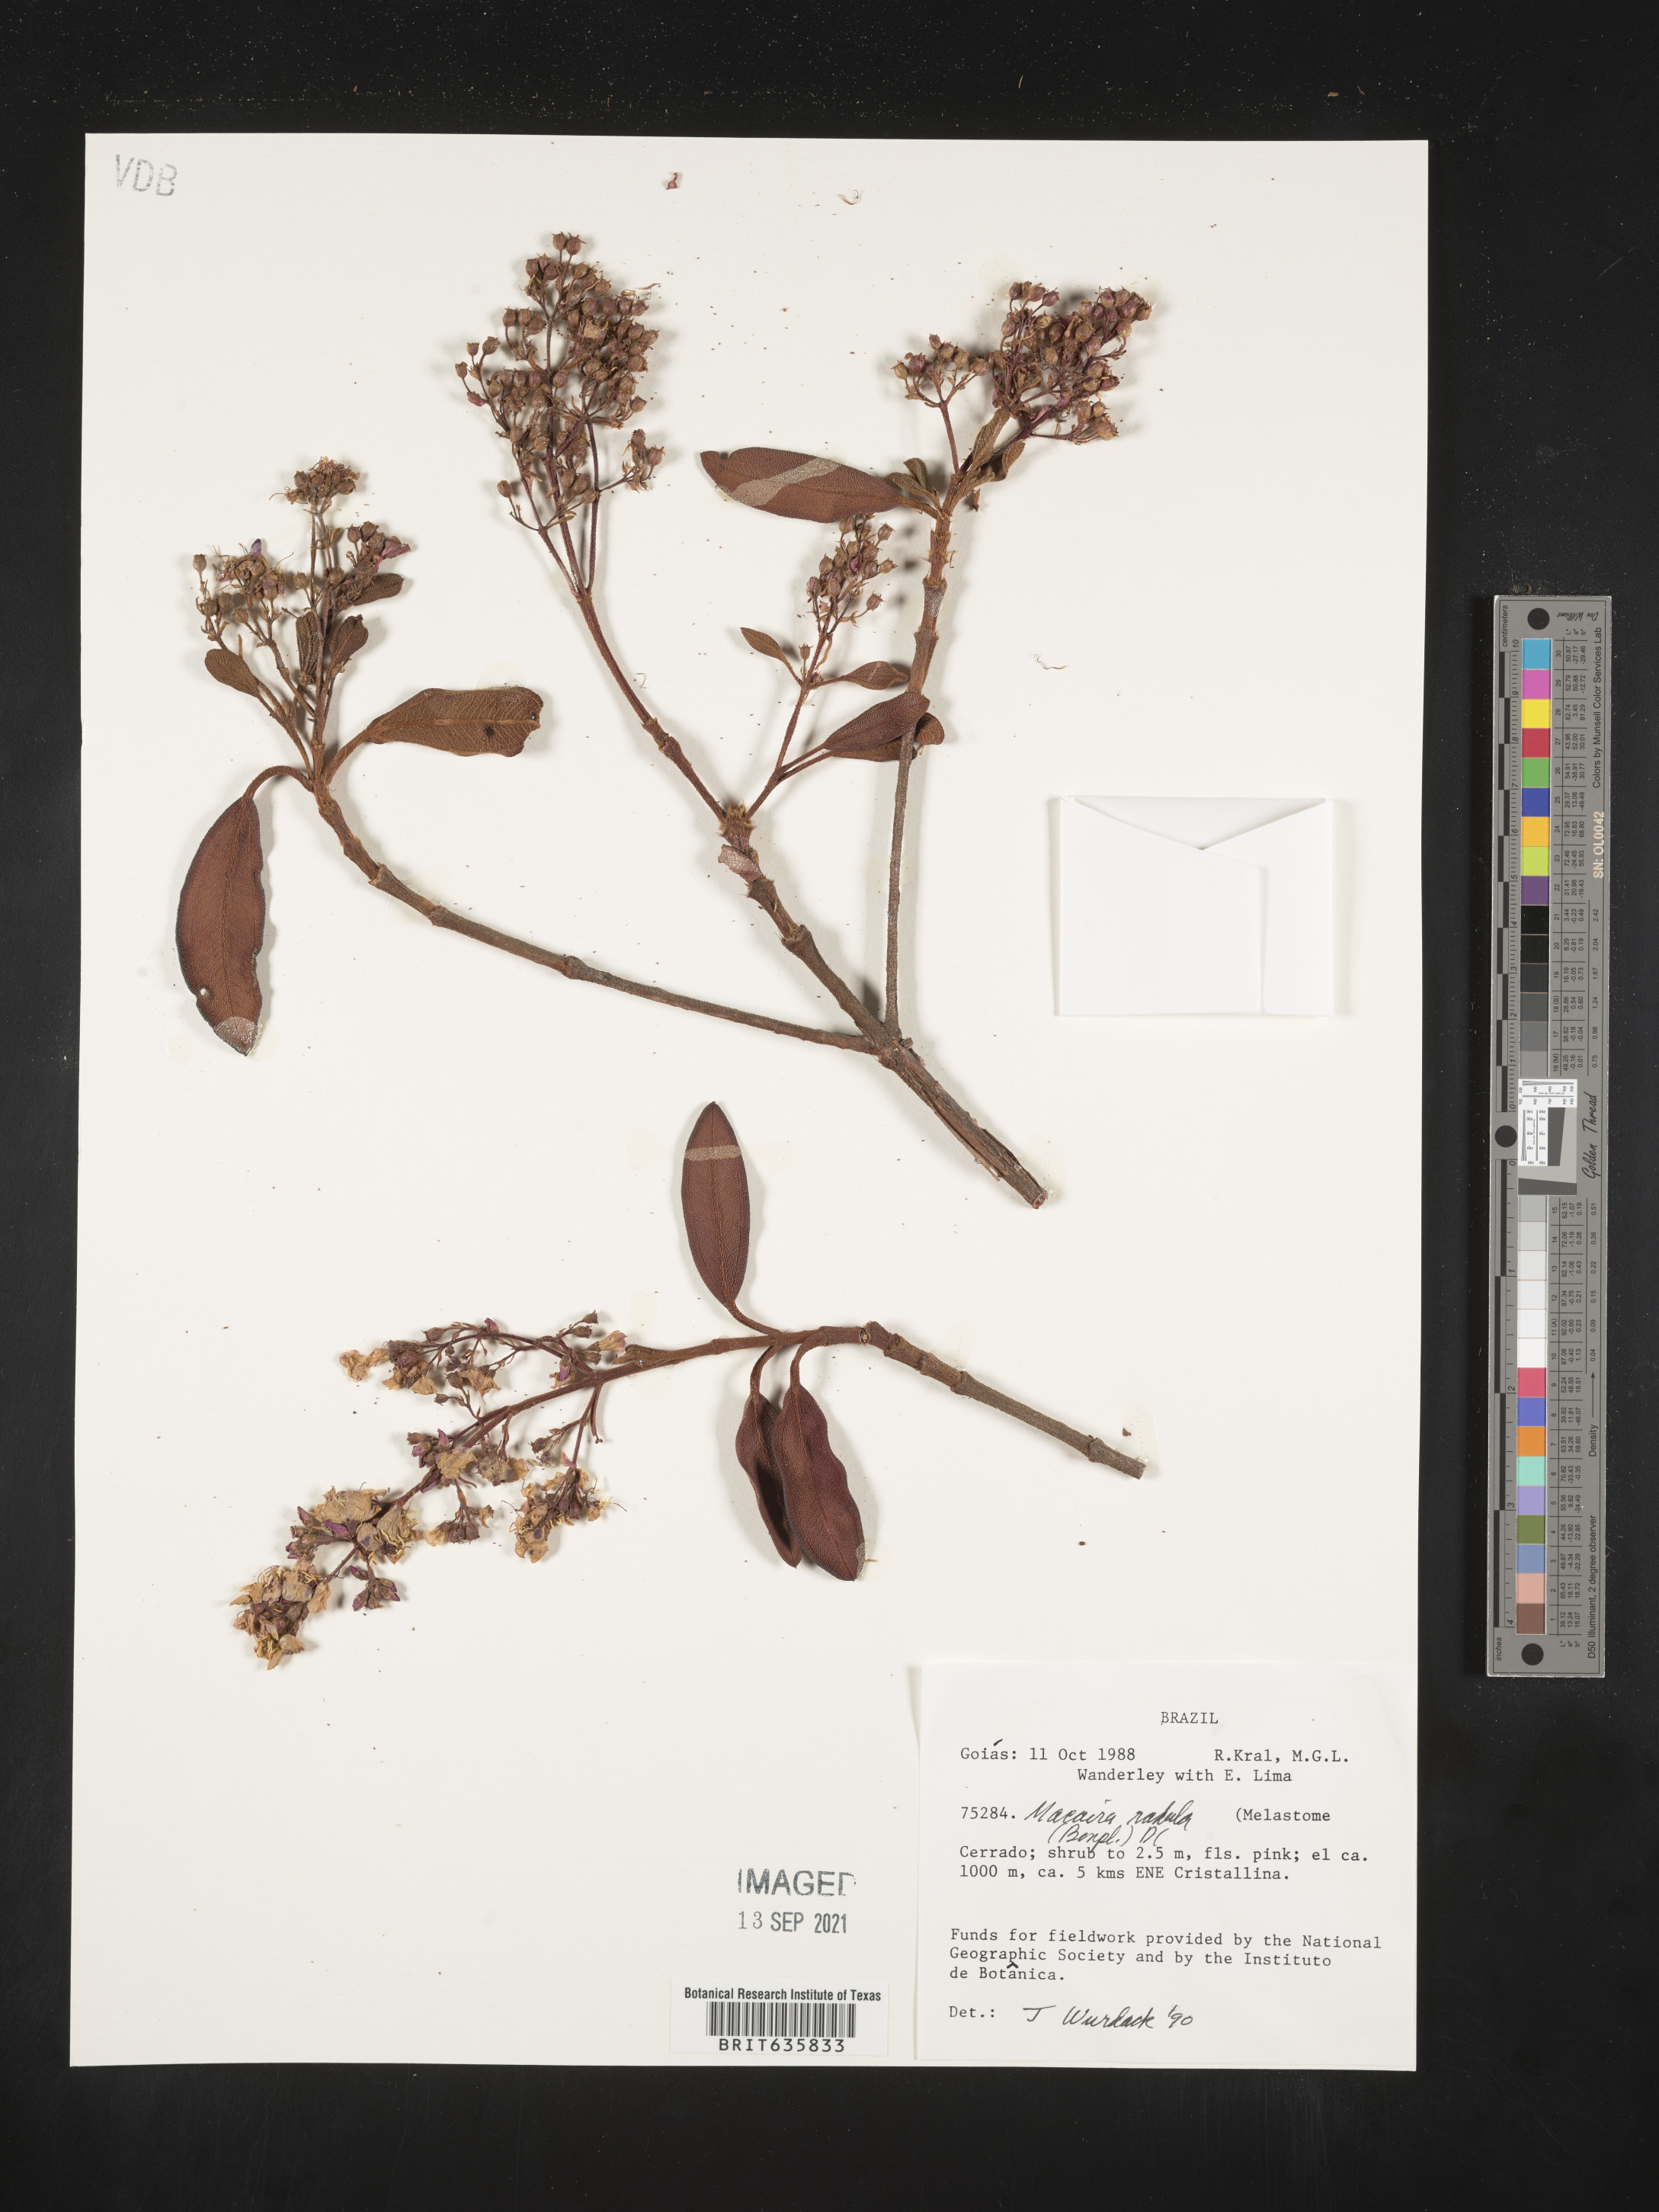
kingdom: Plantae
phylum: Tracheophyta
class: Magnoliopsida
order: Myrtales
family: Melastomataceae
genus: Macairea
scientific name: Macairea
